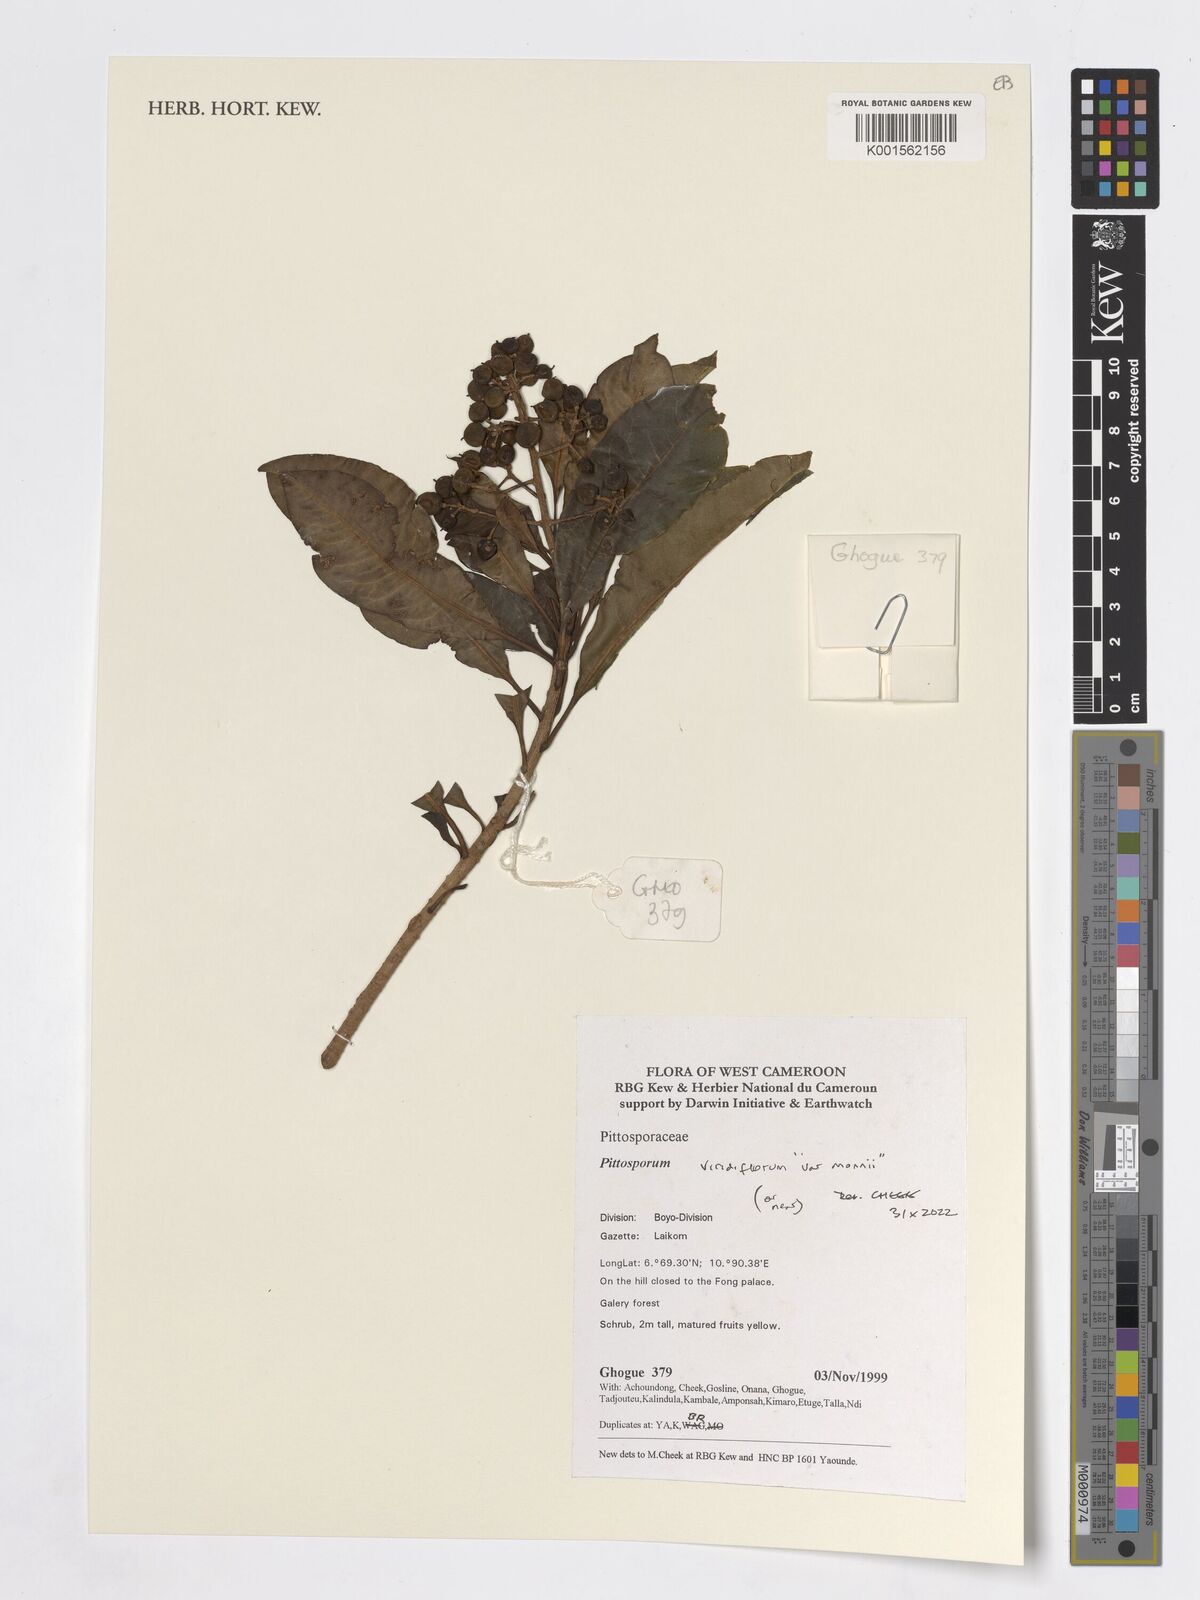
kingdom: Plantae
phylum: Tracheophyta
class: Magnoliopsida
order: Apiales
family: Pittosporaceae
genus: Pittosporum
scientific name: Pittosporum viridiflorum
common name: Cape cheesewood
